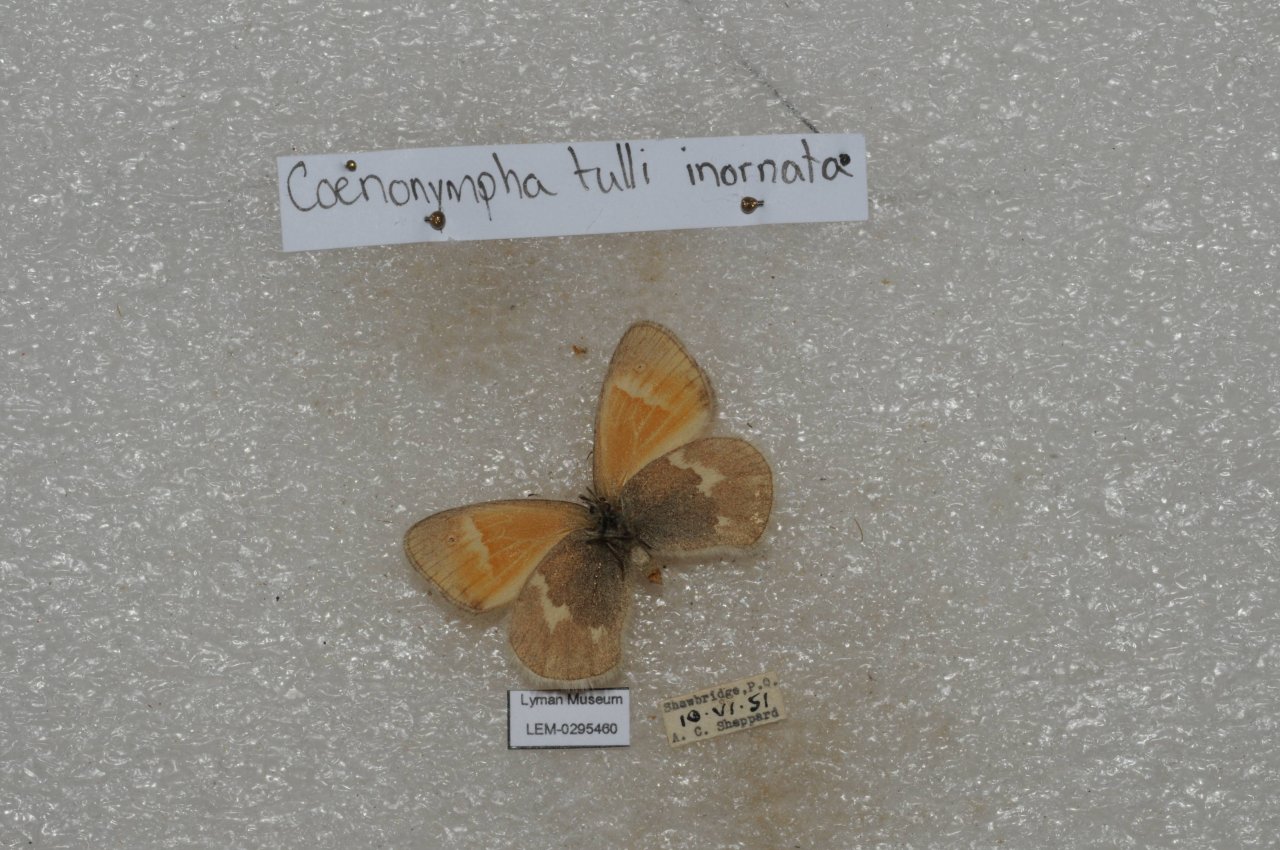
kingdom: Animalia
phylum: Arthropoda
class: Insecta
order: Lepidoptera
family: Nymphalidae
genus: Coenonympha
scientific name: Coenonympha tullia
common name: Large Heath
